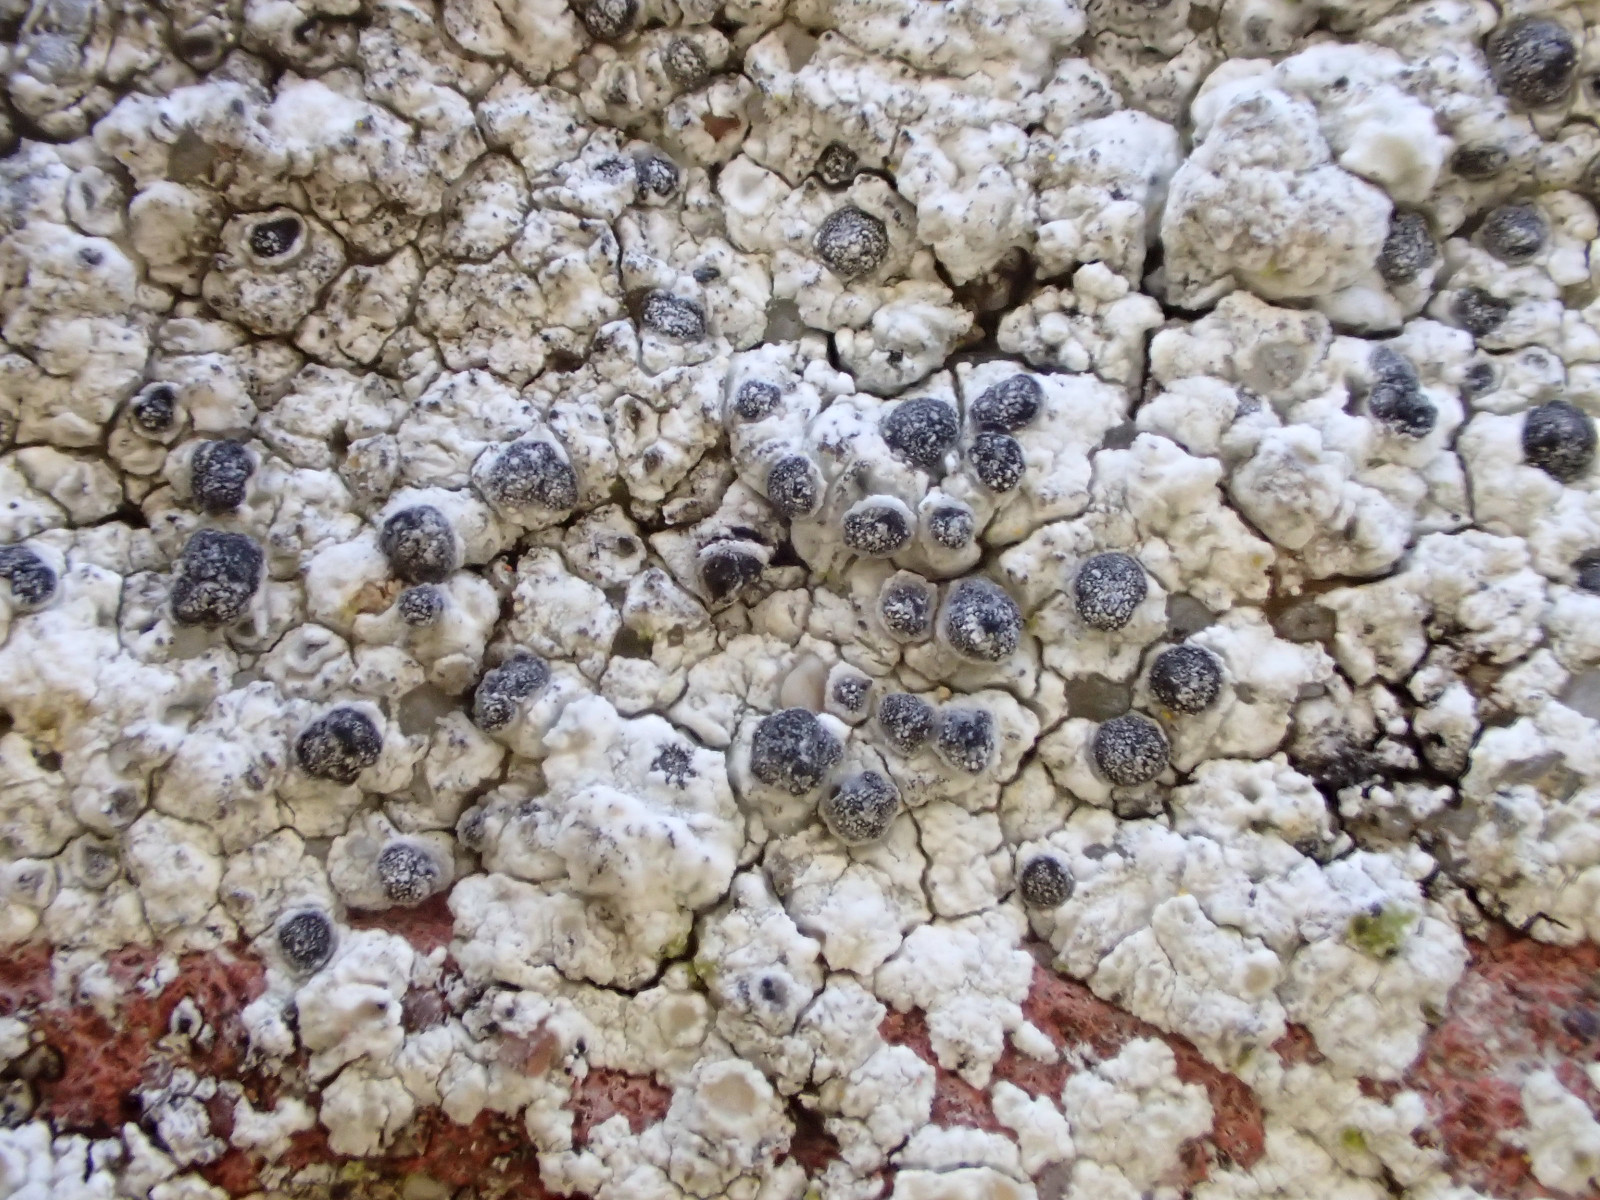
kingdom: Fungi
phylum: Ascomycota
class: Lecanoromycetes
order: Caliciales
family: Caliciaceae
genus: Diplotomma
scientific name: Diplotomma alboatrum
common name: sorthvid sortskivelav
